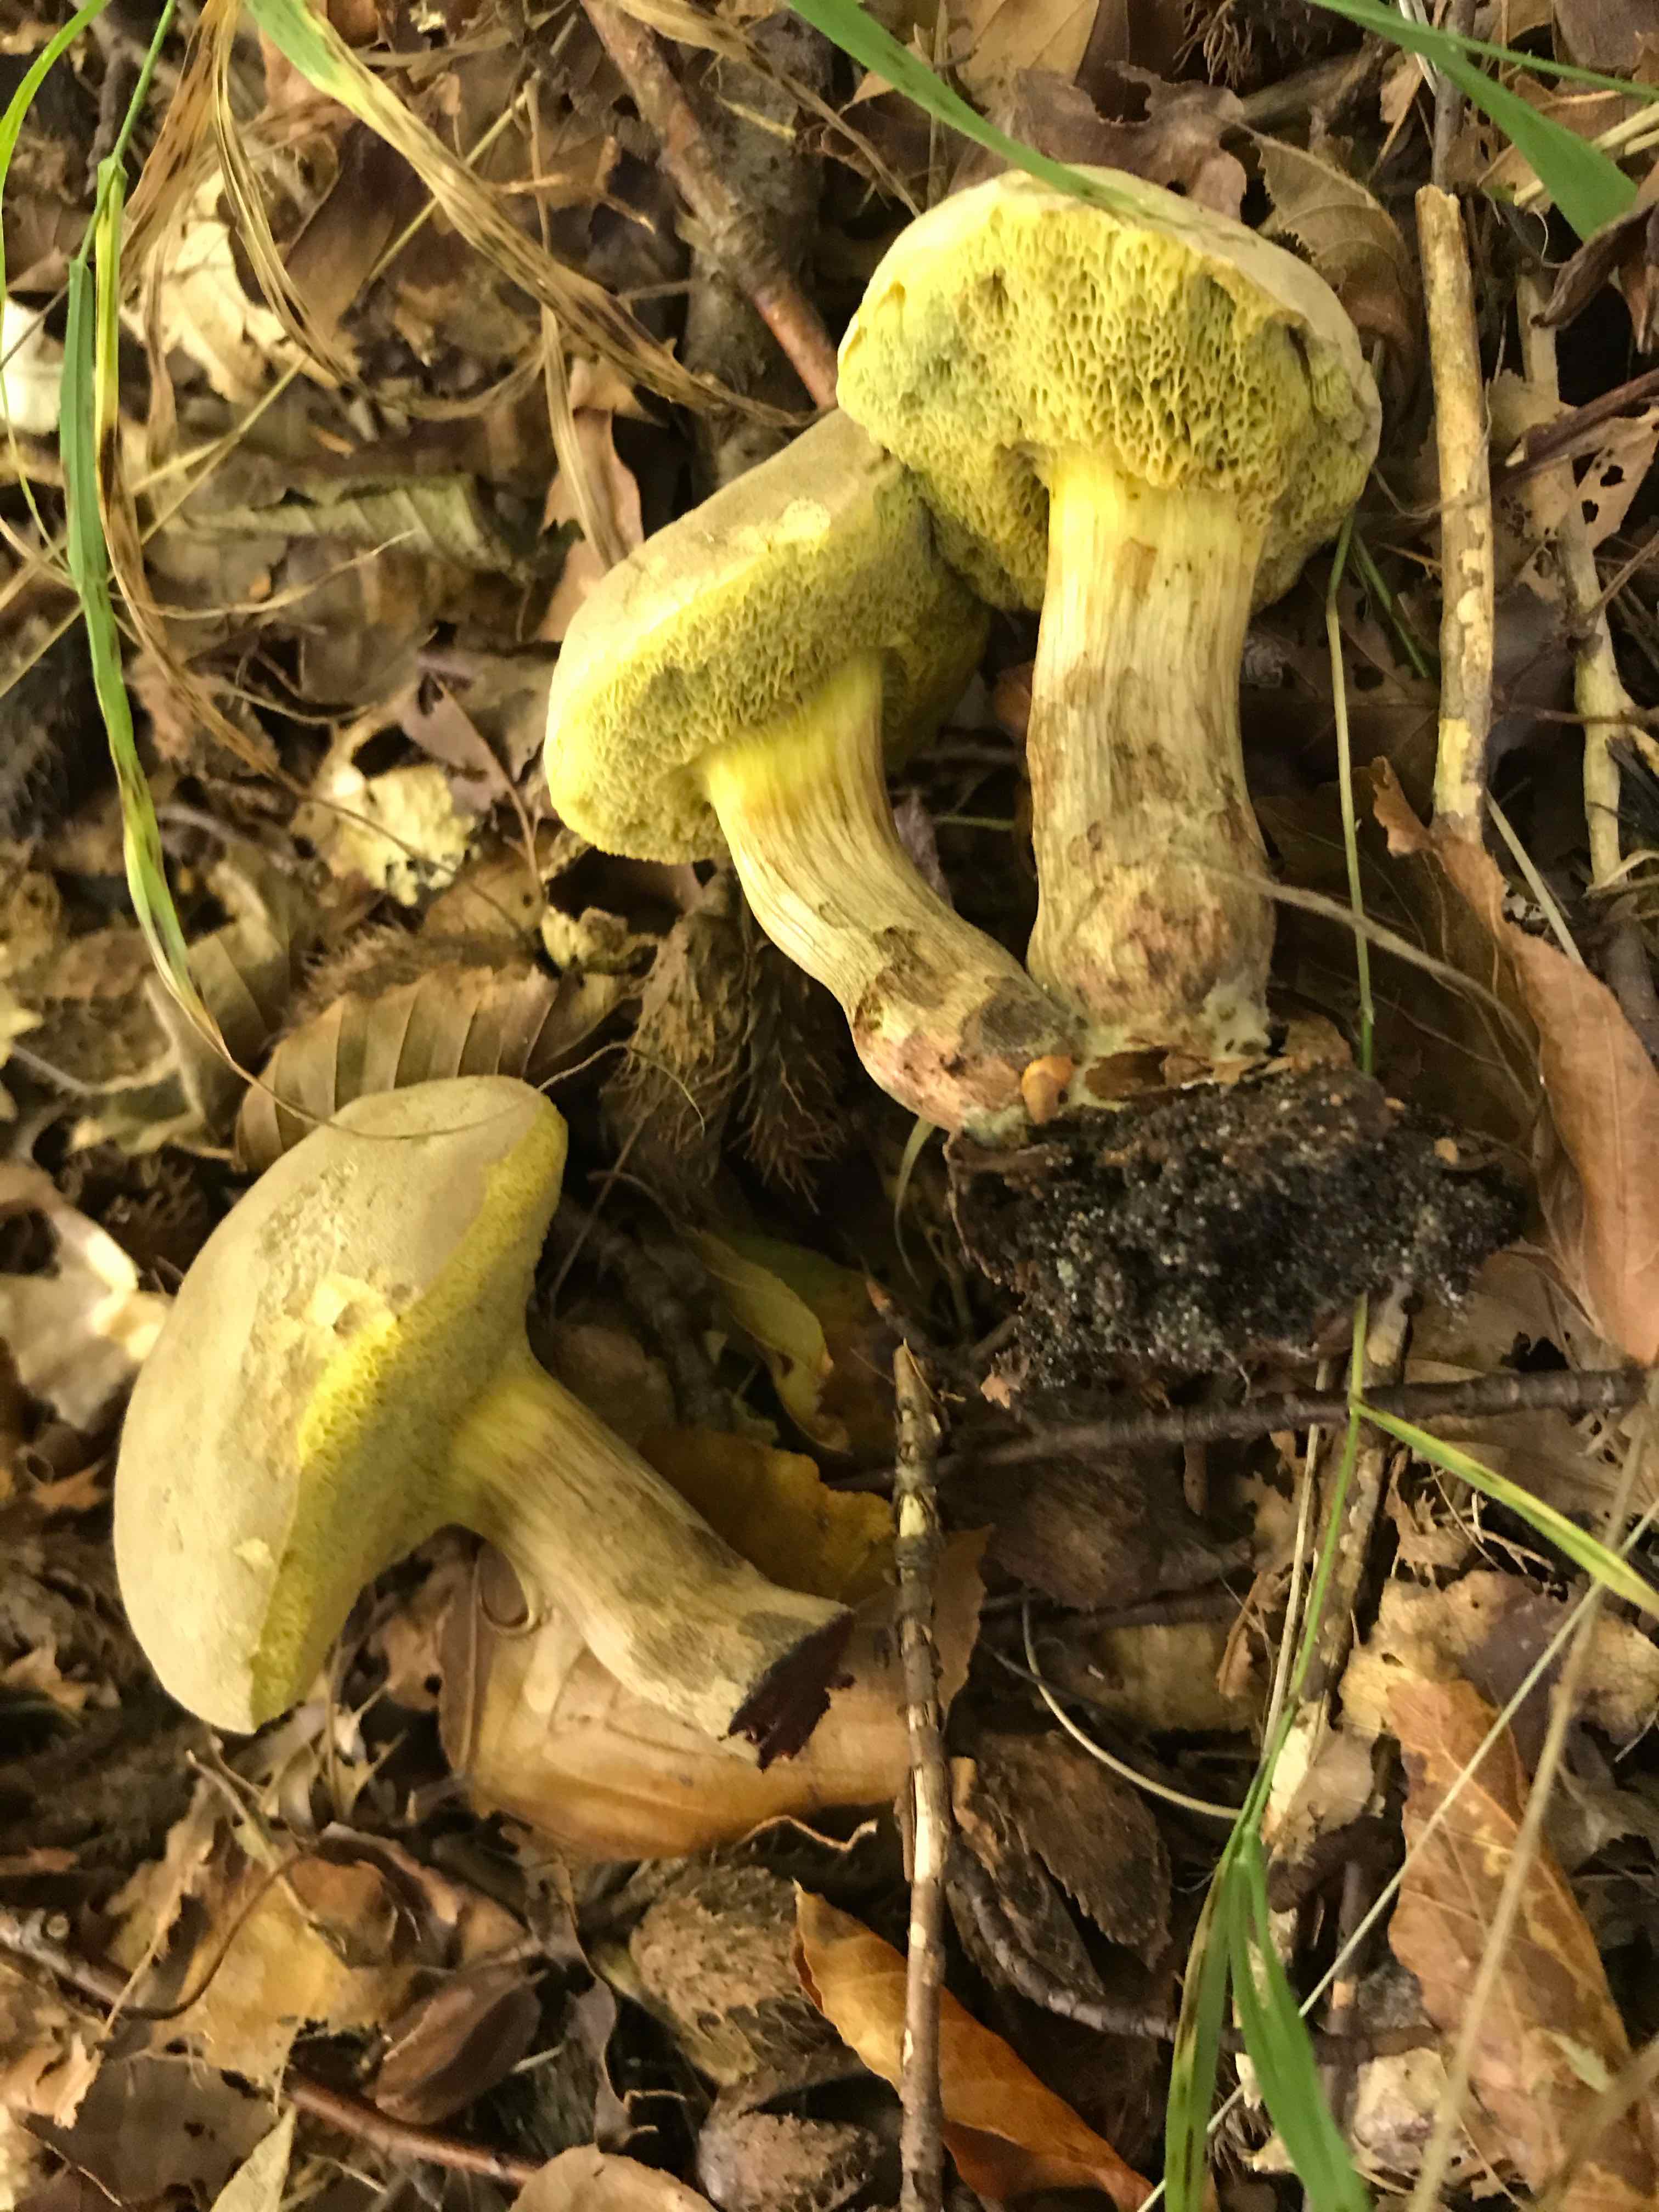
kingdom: Fungi
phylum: Basidiomycota
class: Agaricomycetes
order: Boletales
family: Boletaceae
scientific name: Boletaceae
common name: rørhatfamilien
